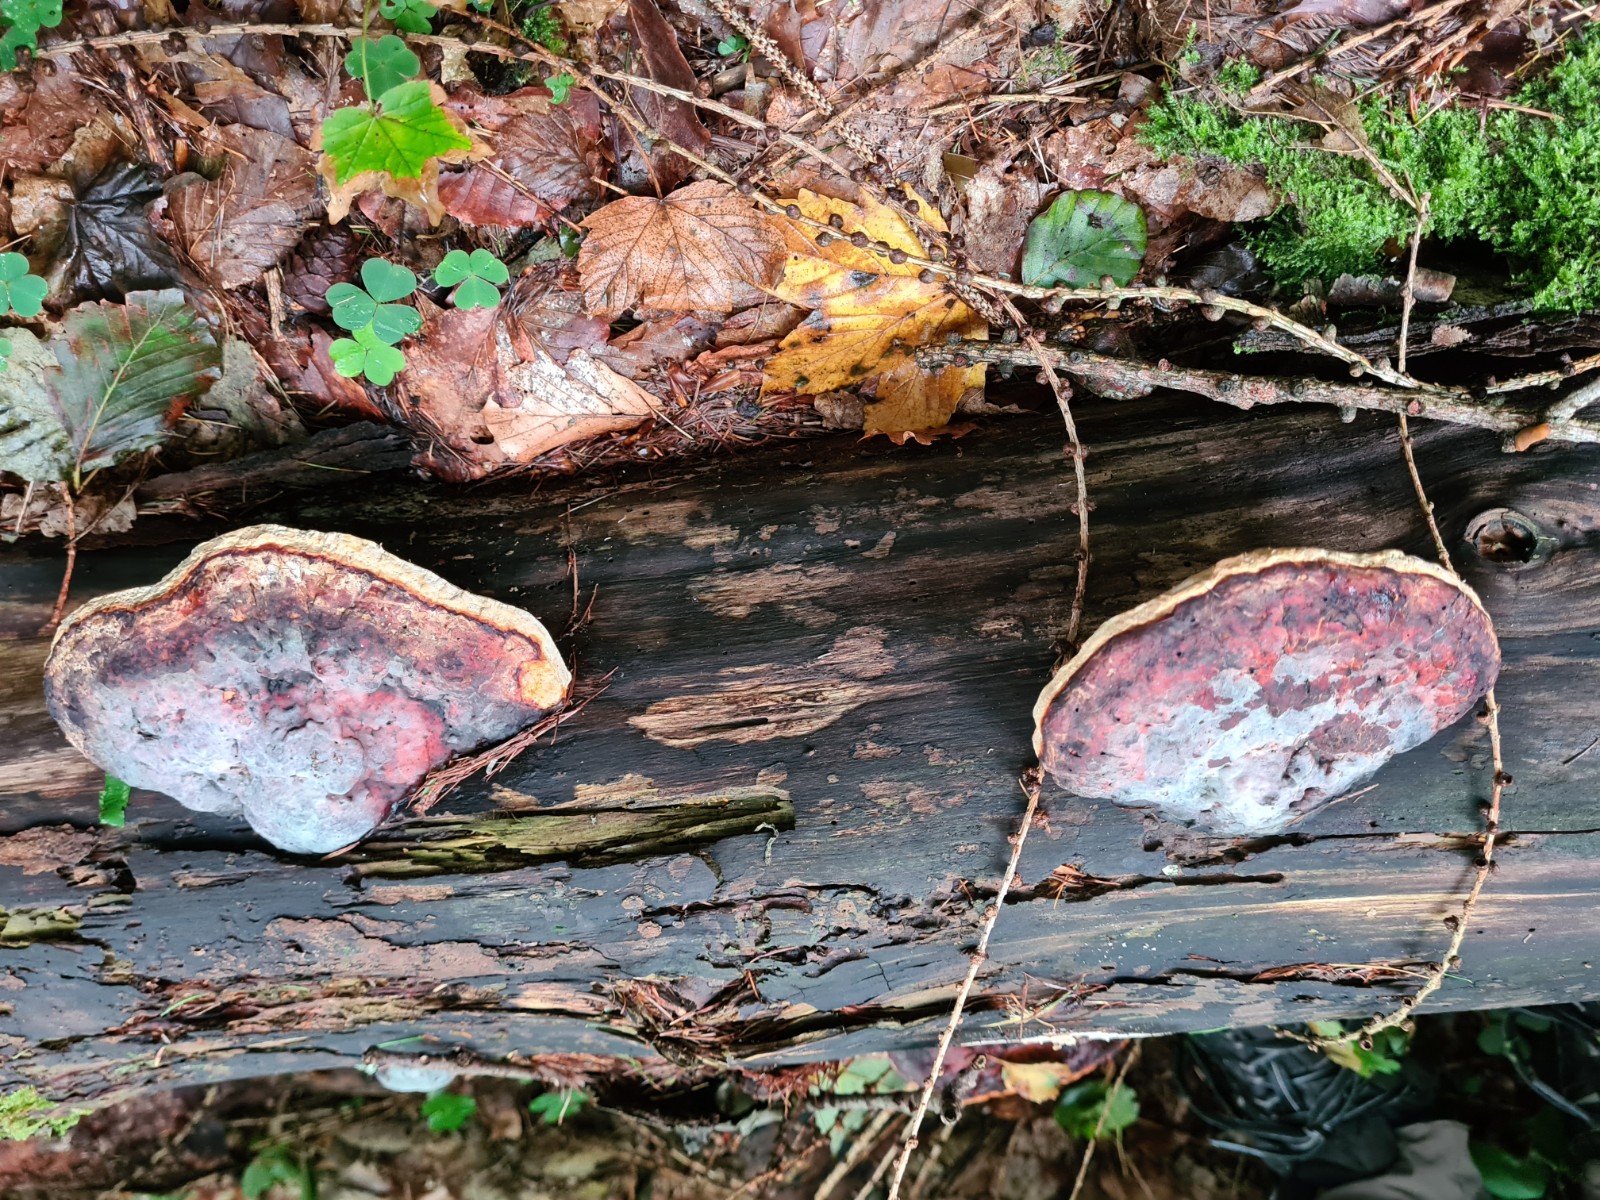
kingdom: Fungi
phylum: Basidiomycota
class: Agaricomycetes
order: Polyporales
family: Fomitopsidaceae
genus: Fomitopsis
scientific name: Fomitopsis pinicola
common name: randbæltet hovporesvamp
